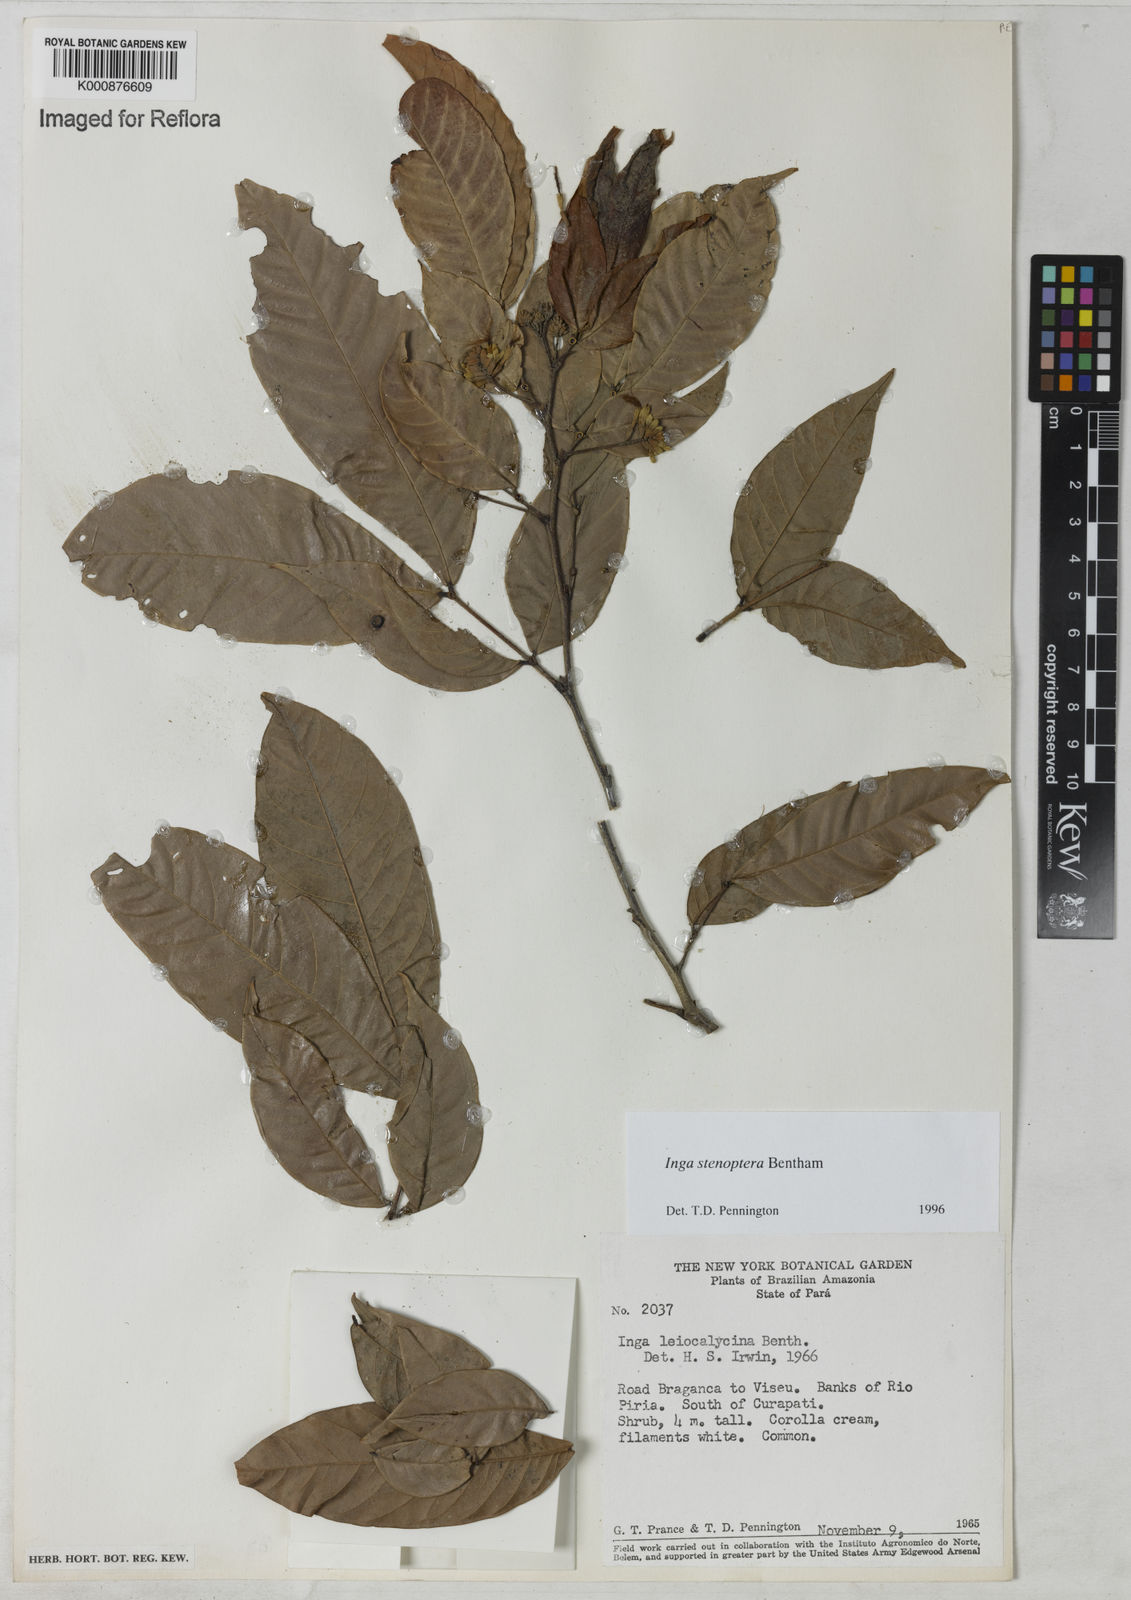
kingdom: Plantae
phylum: Tracheophyta
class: Magnoliopsida
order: Fabales
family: Fabaceae
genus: Inga
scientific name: Inga stenoptera
